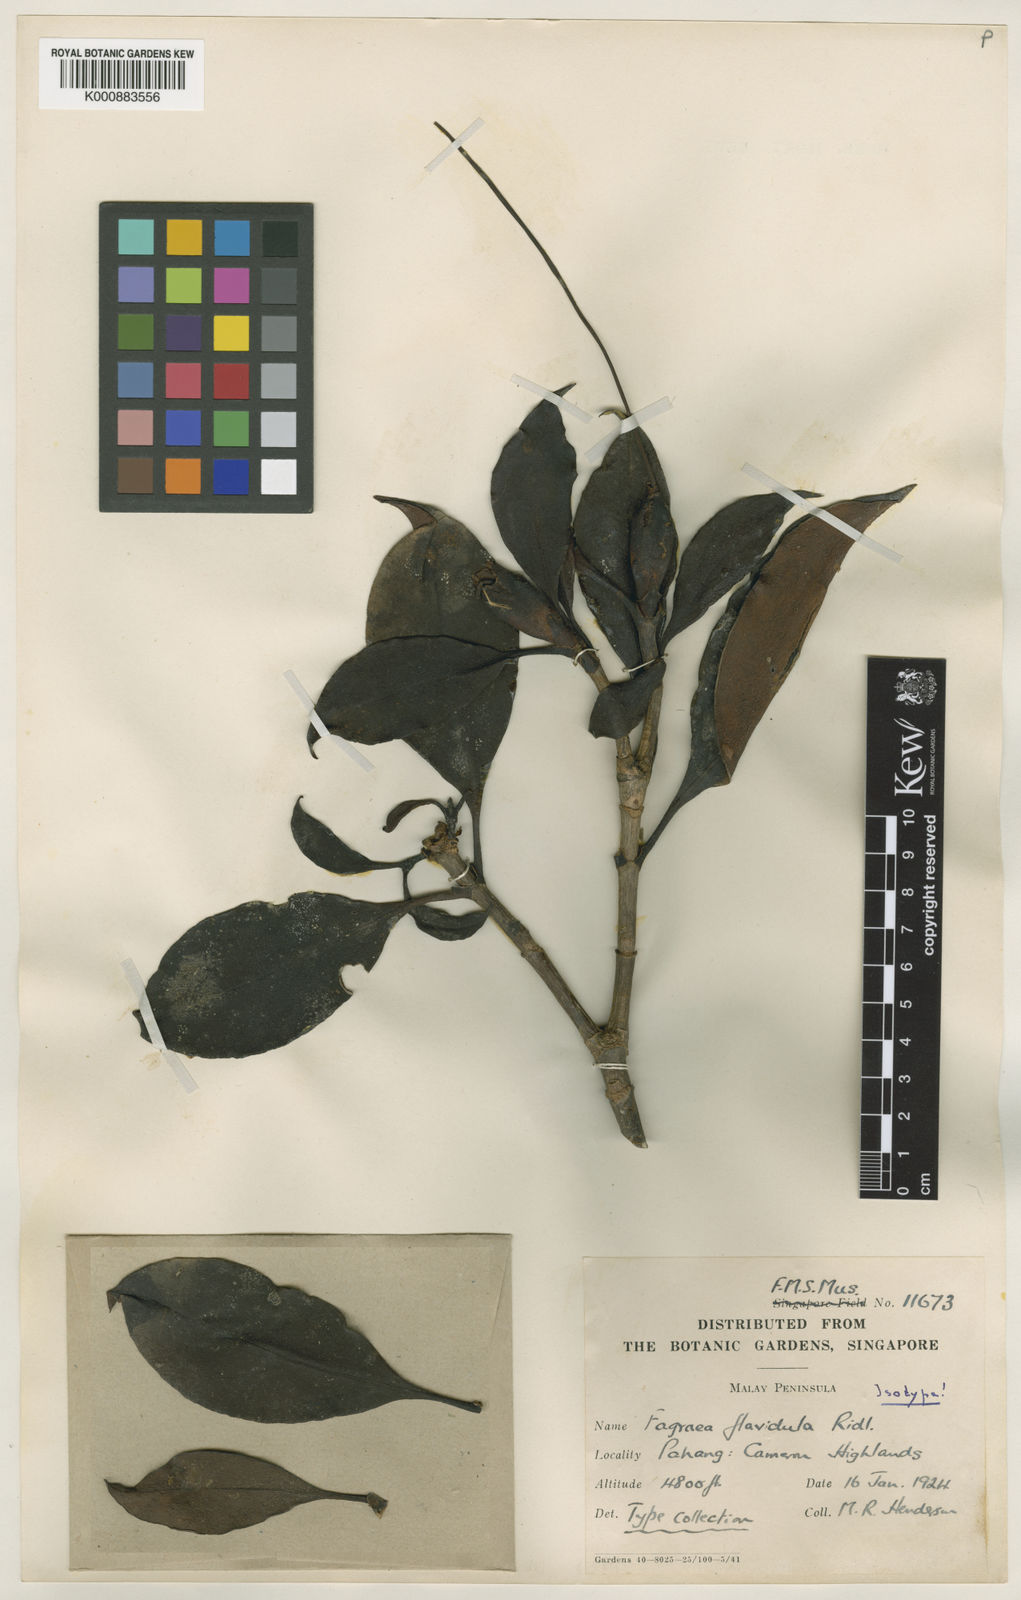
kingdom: Plantae
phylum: Tracheophyta
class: Magnoliopsida
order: Gentianales
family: Gentianaceae
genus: Fagraea
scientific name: Fagraea carnosa
